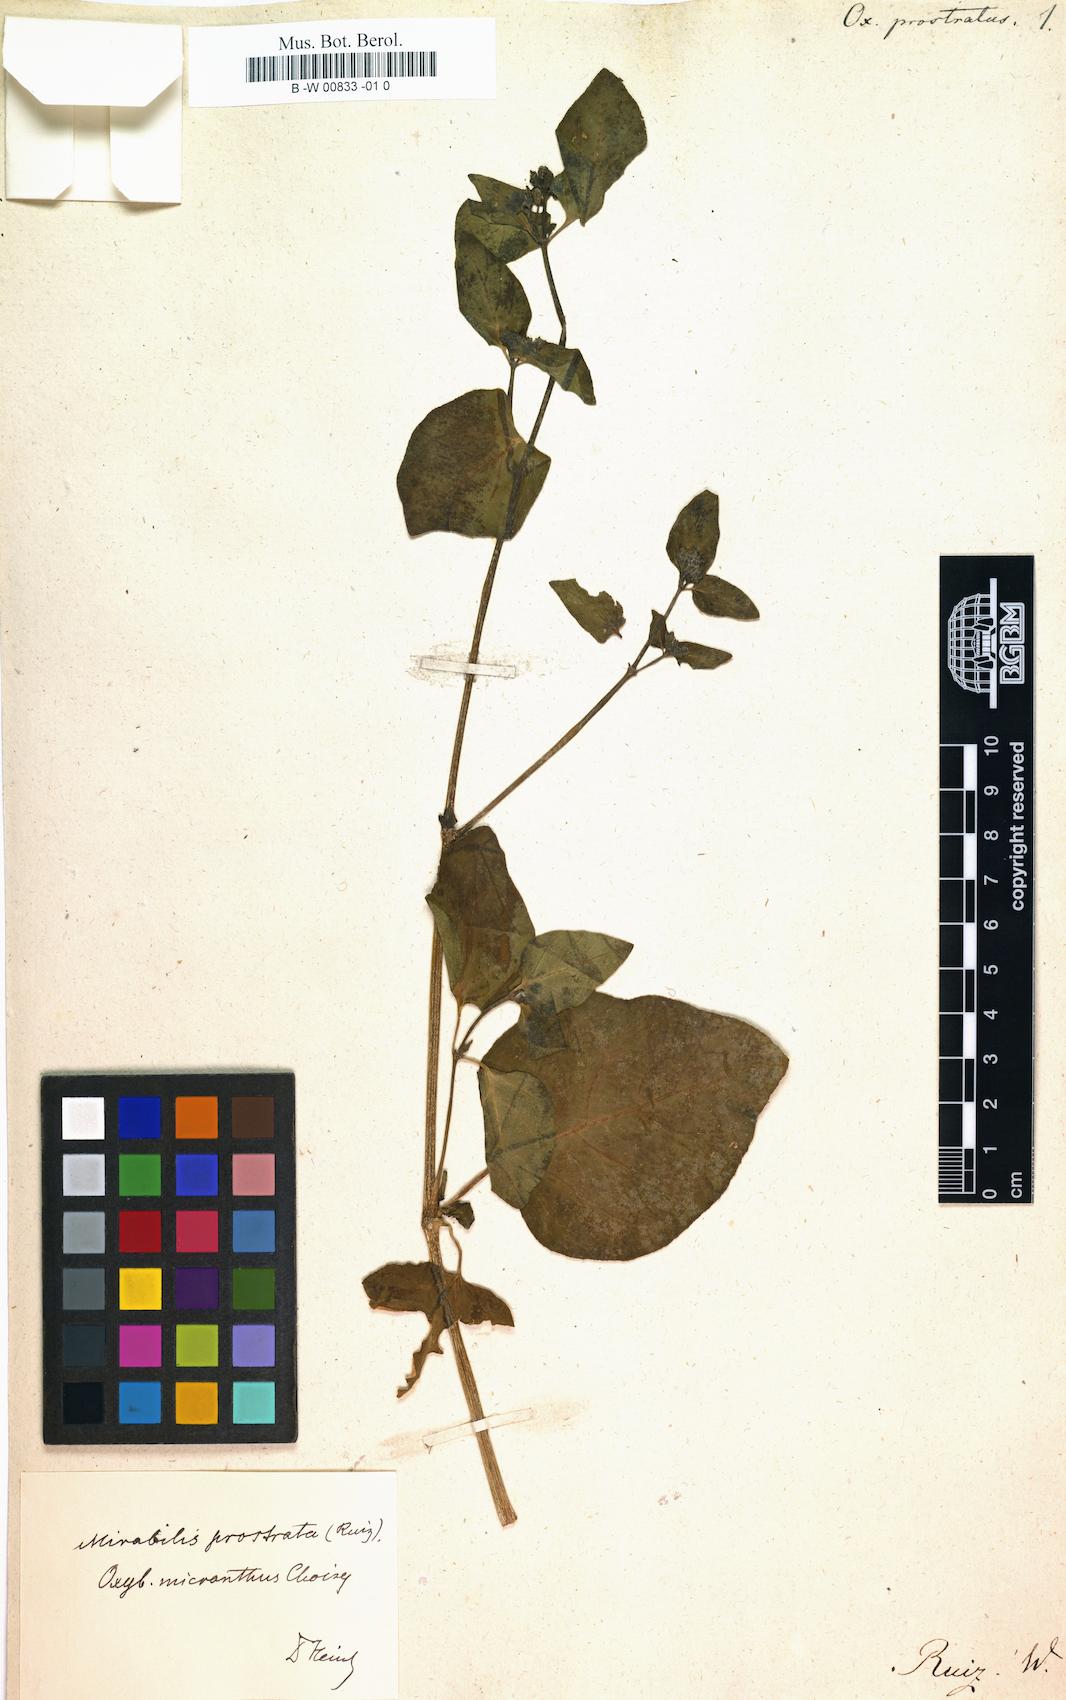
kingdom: Plantae
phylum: Tracheophyta
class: Magnoliopsida
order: Caryophyllales
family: Nyctaginaceae
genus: Mirabilis
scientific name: Mirabilis prostrata
